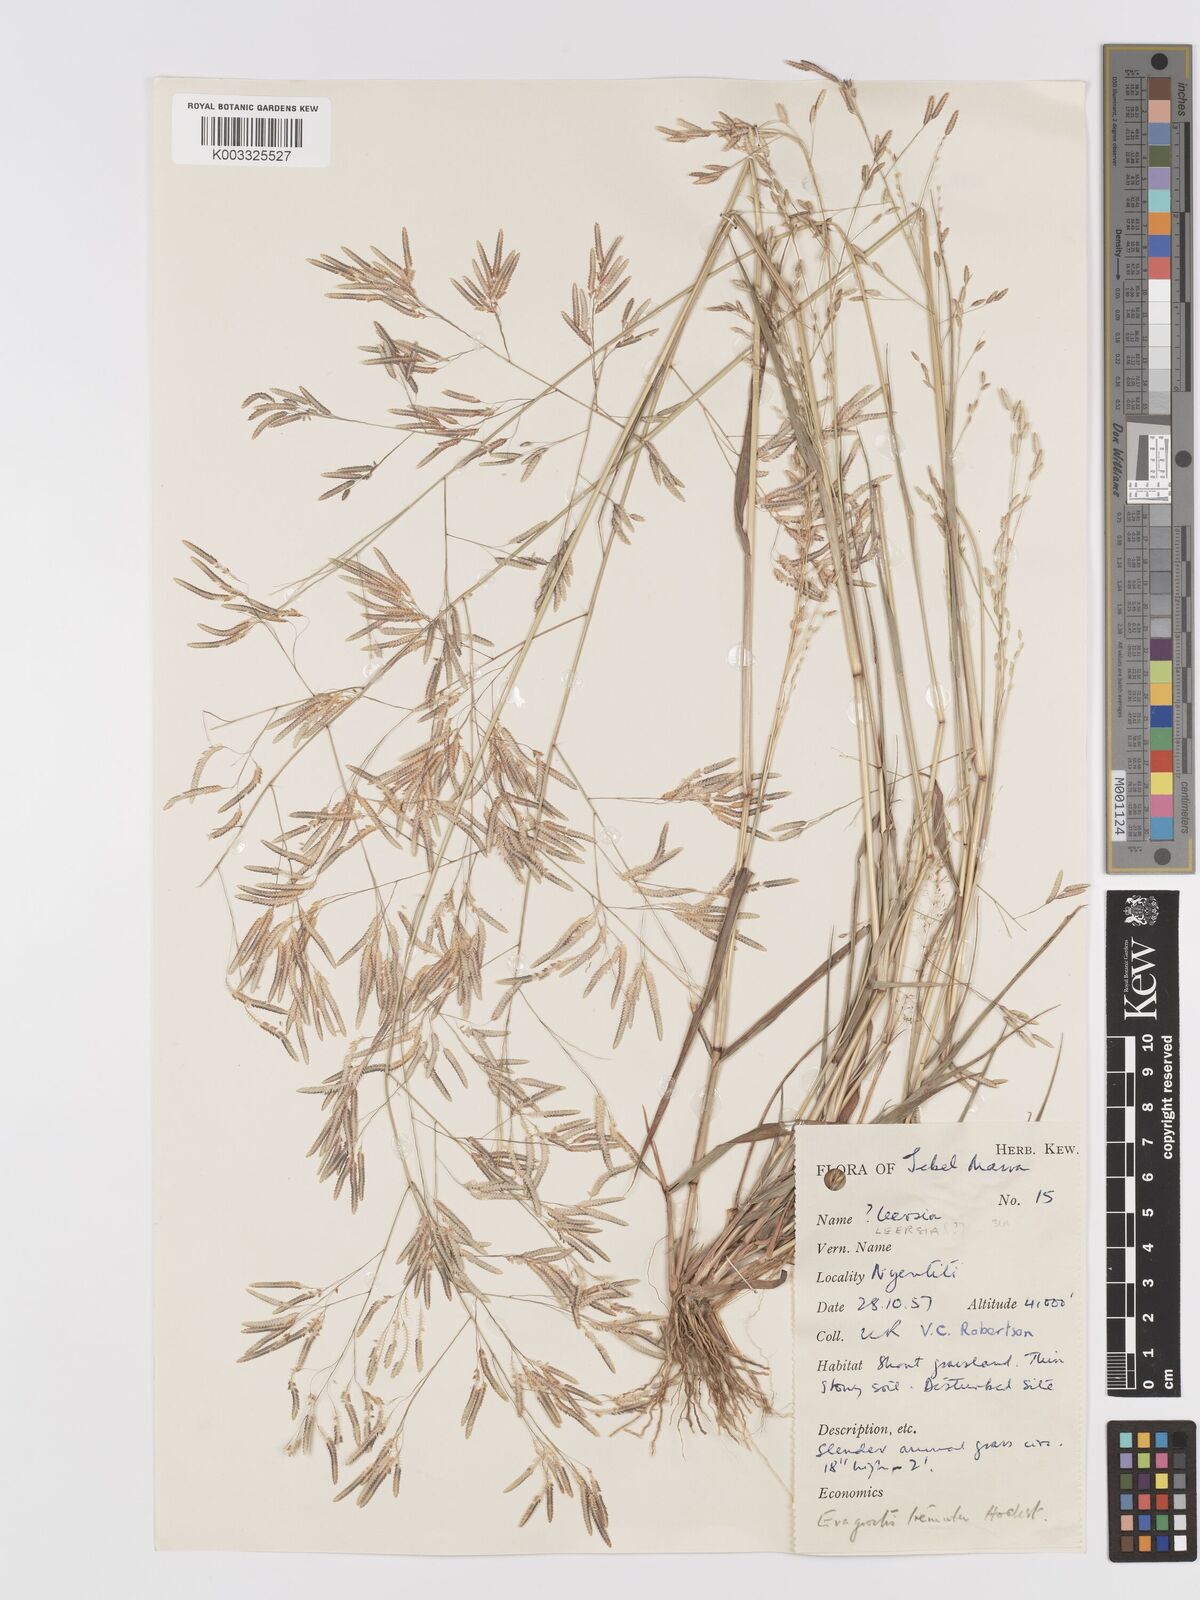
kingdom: Plantae
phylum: Tracheophyta
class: Liliopsida
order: Poales
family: Poaceae
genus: Eragrostis
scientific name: Eragrostis tremula
